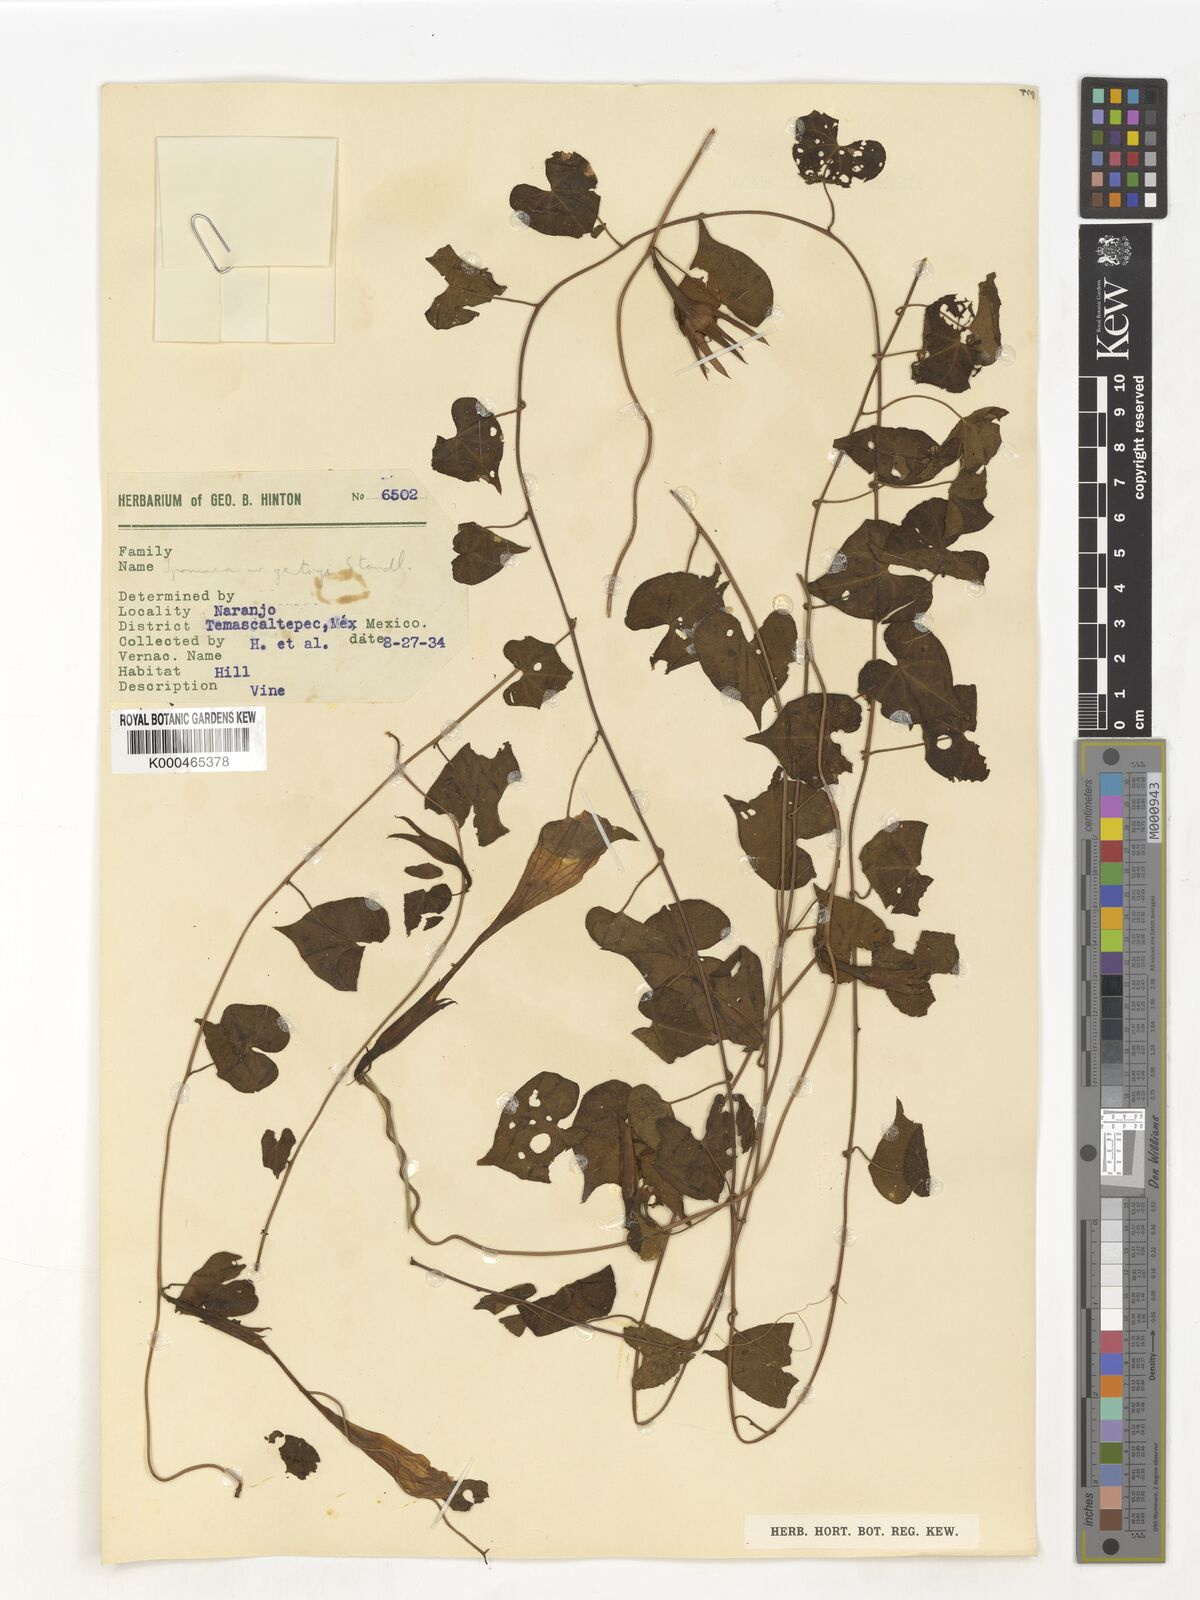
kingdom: Plantae
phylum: Tracheophyta
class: Magnoliopsida
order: Solanales
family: Convolvulaceae
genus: Ipomoea
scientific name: Ipomoea
